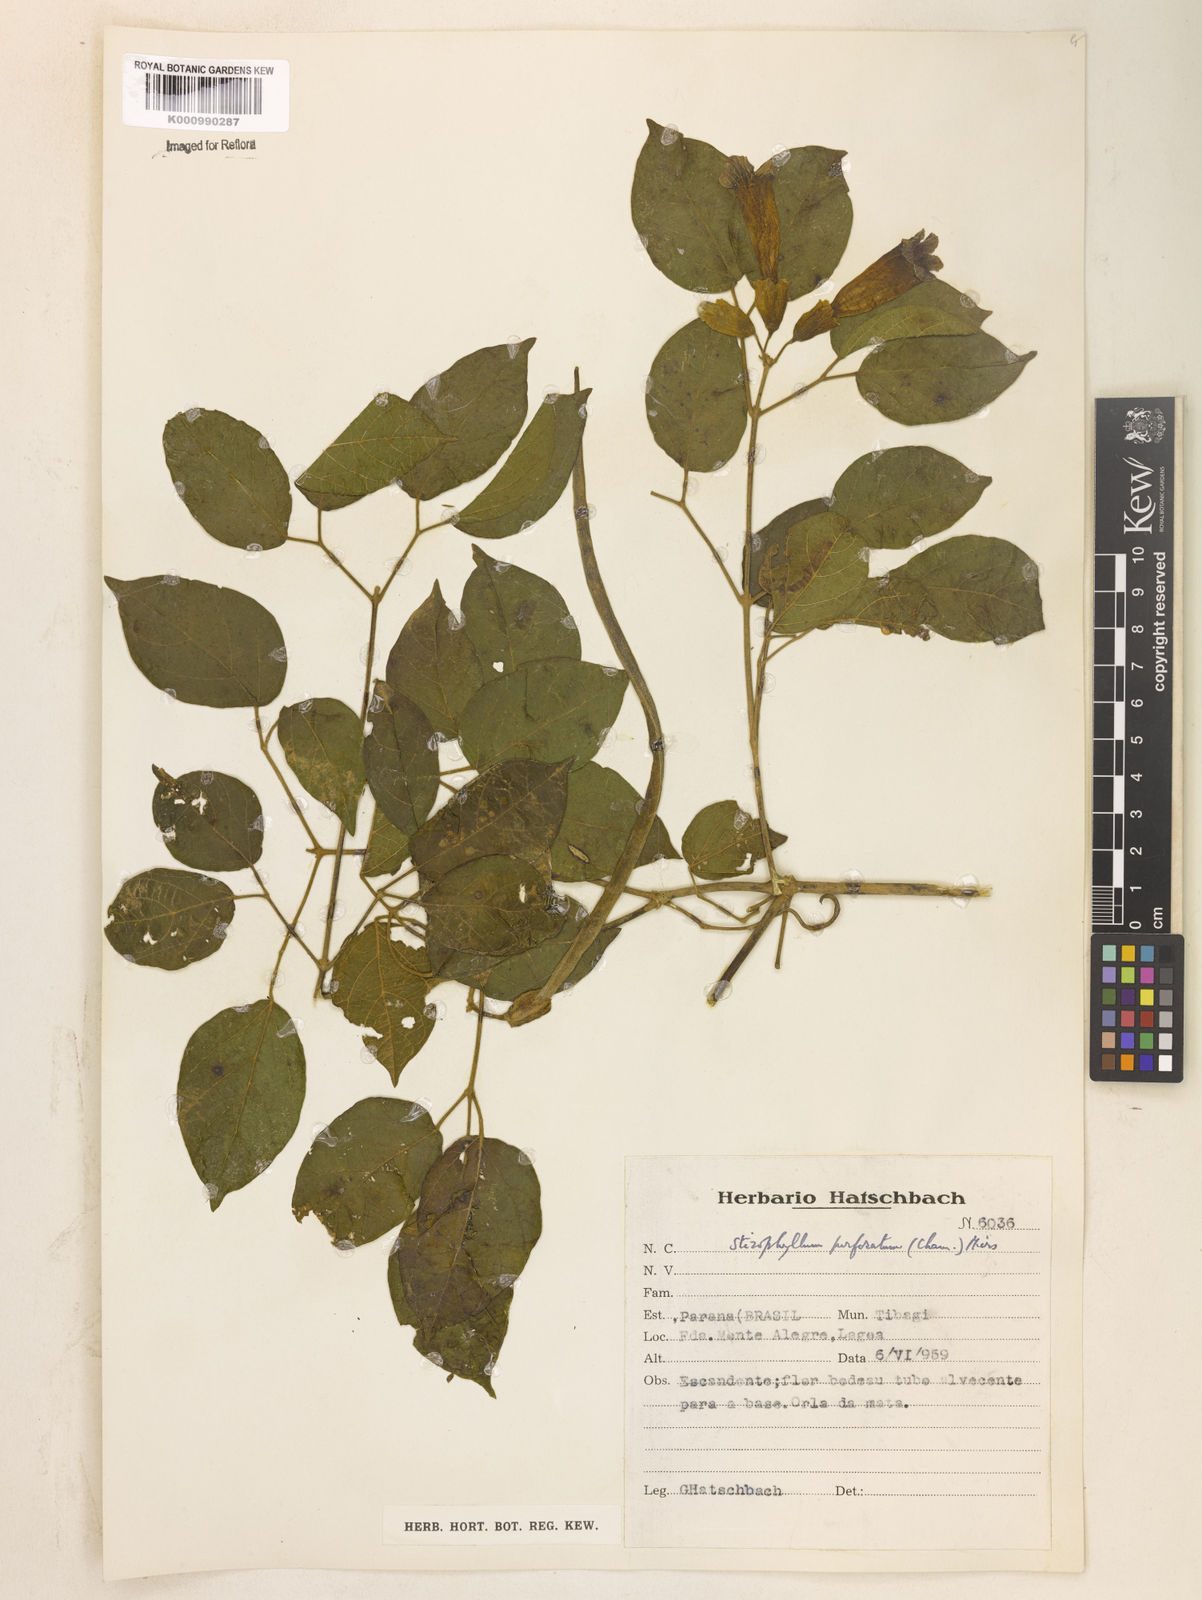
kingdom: Plantae
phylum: Tracheophyta
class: Magnoliopsida
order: Lamiales
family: Bignoniaceae
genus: Stizophyllum
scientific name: Stizophyllum perforatum
